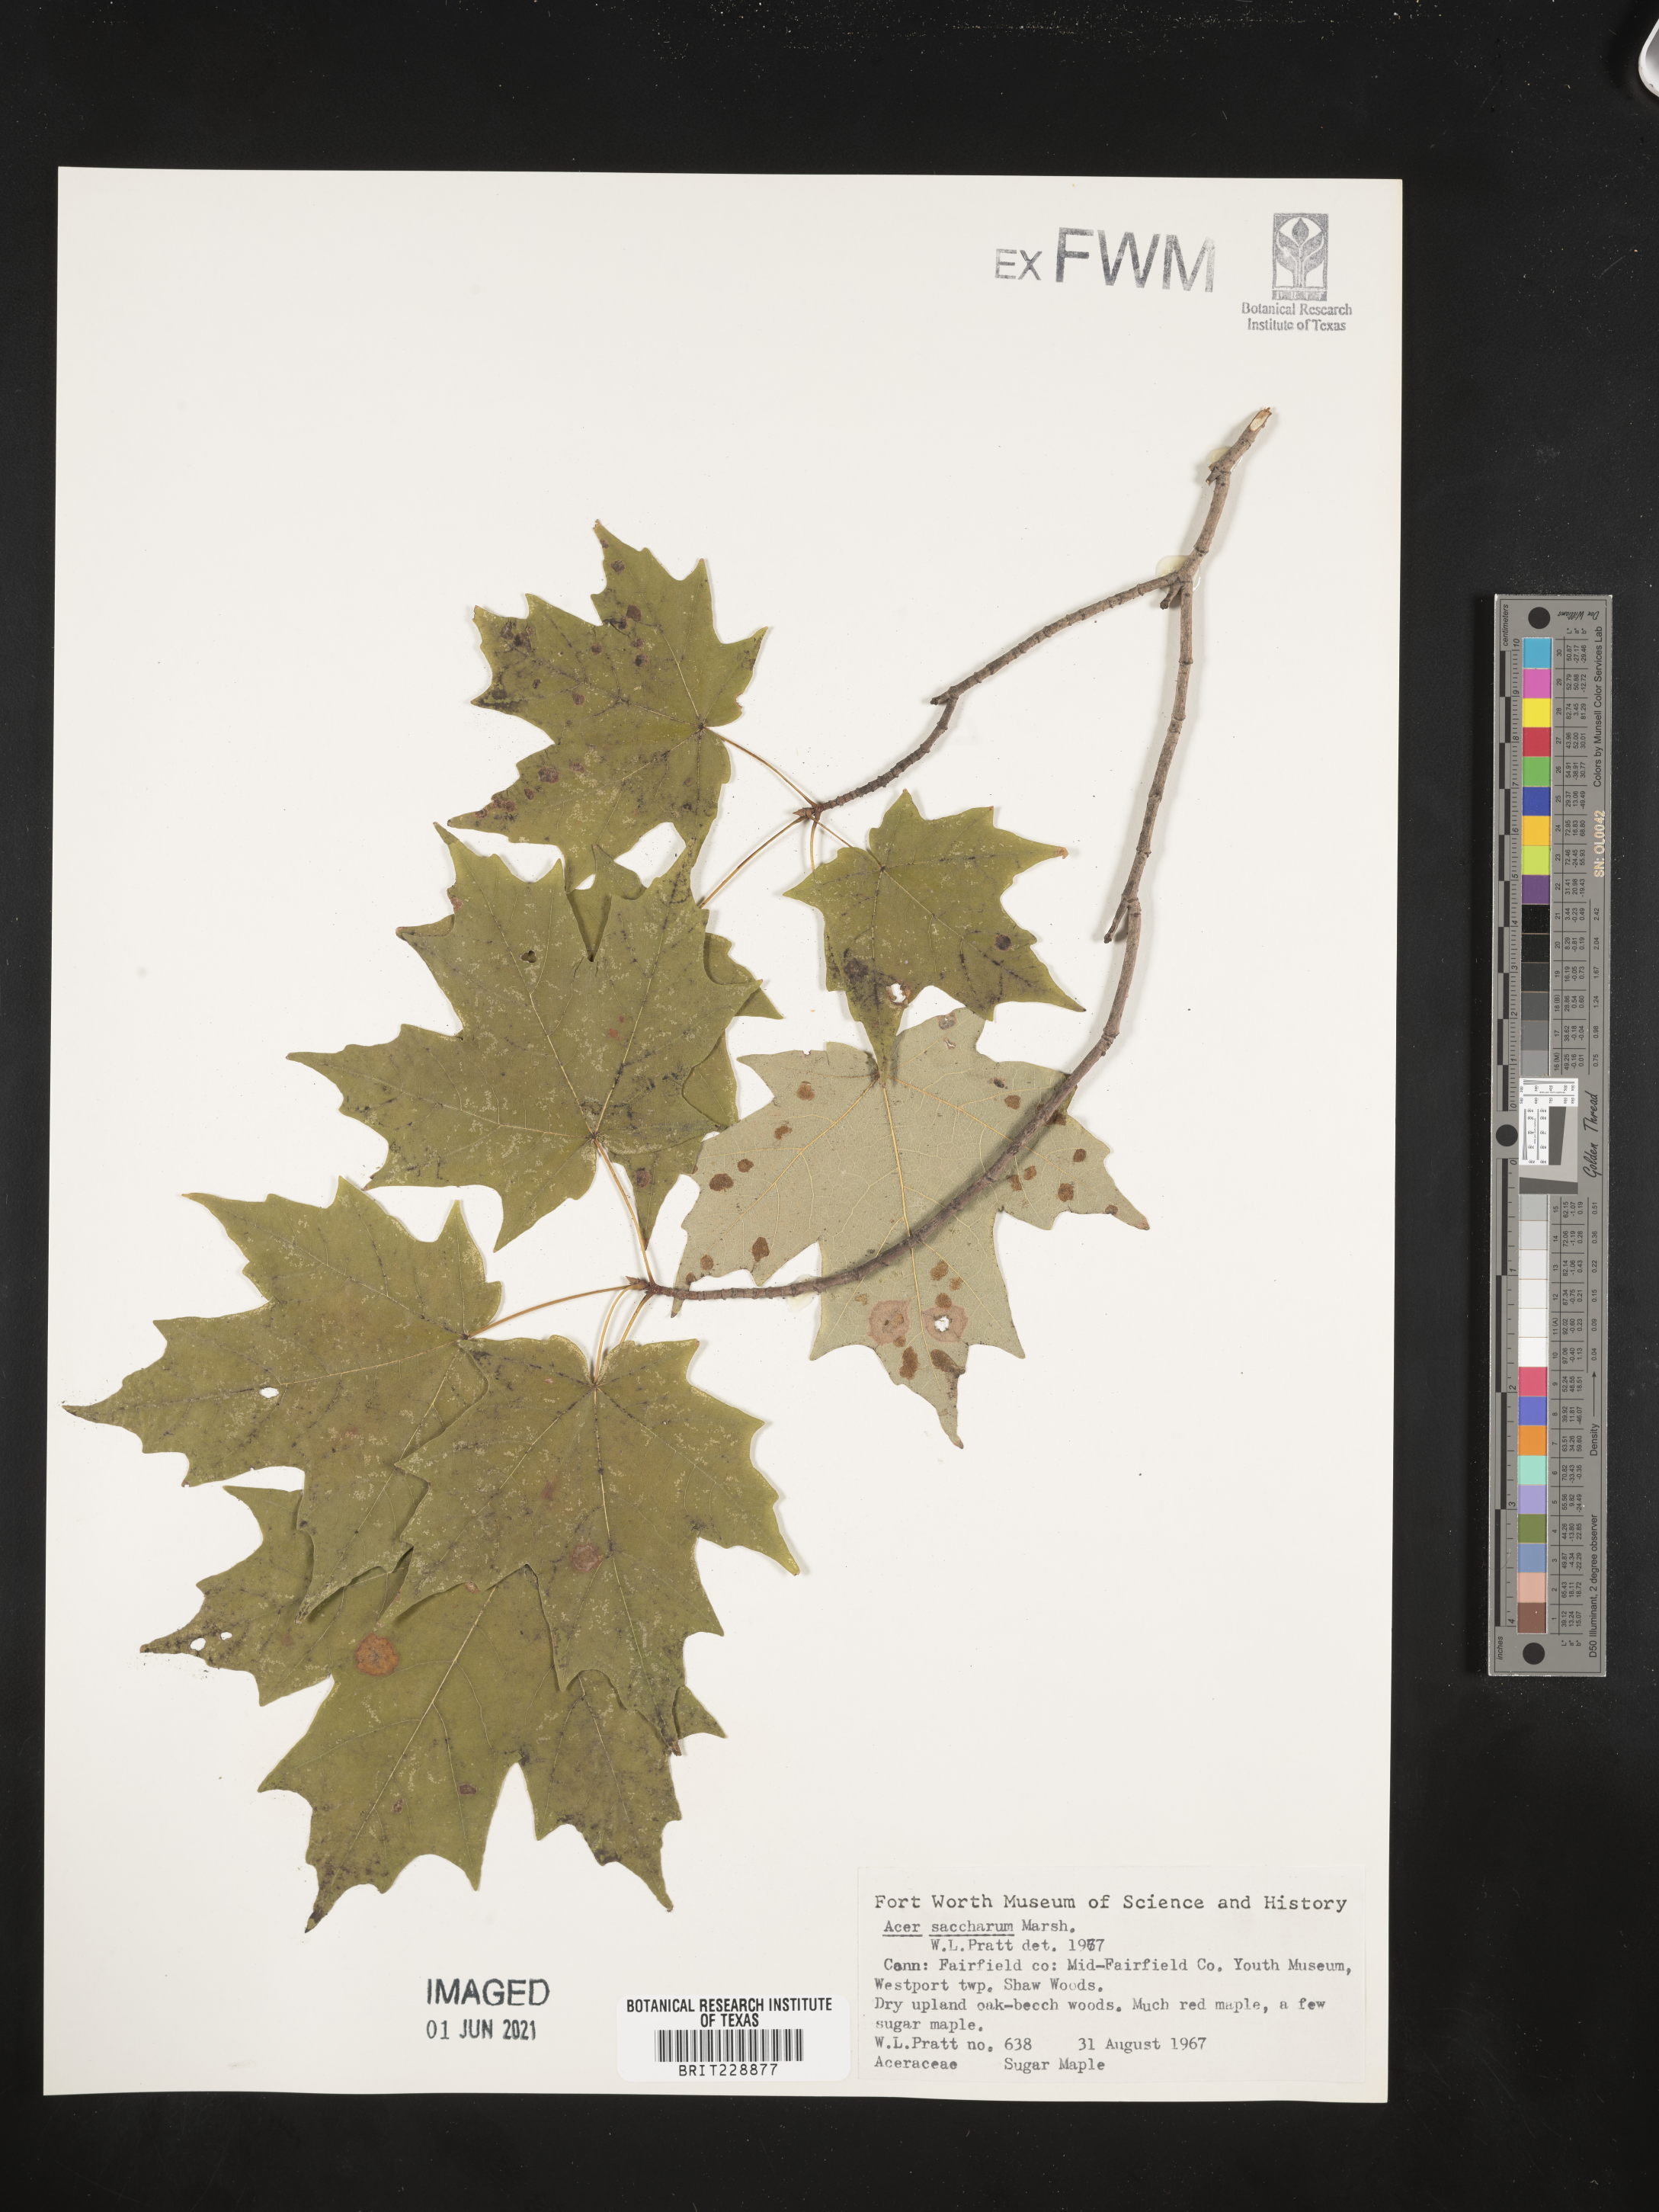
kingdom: Plantae
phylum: Tracheophyta
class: Magnoliopsida
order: Sapindales
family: Sapindaceae
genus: Acer
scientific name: Acer saccharinum
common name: Silver maple
